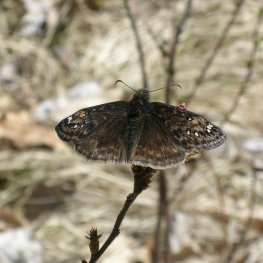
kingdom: Animalia
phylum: Arthropoda
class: Insecta
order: Lepidoptera
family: Hesperiidae
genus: Gesta
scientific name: Gesta
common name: Juvenal's Duskywing
